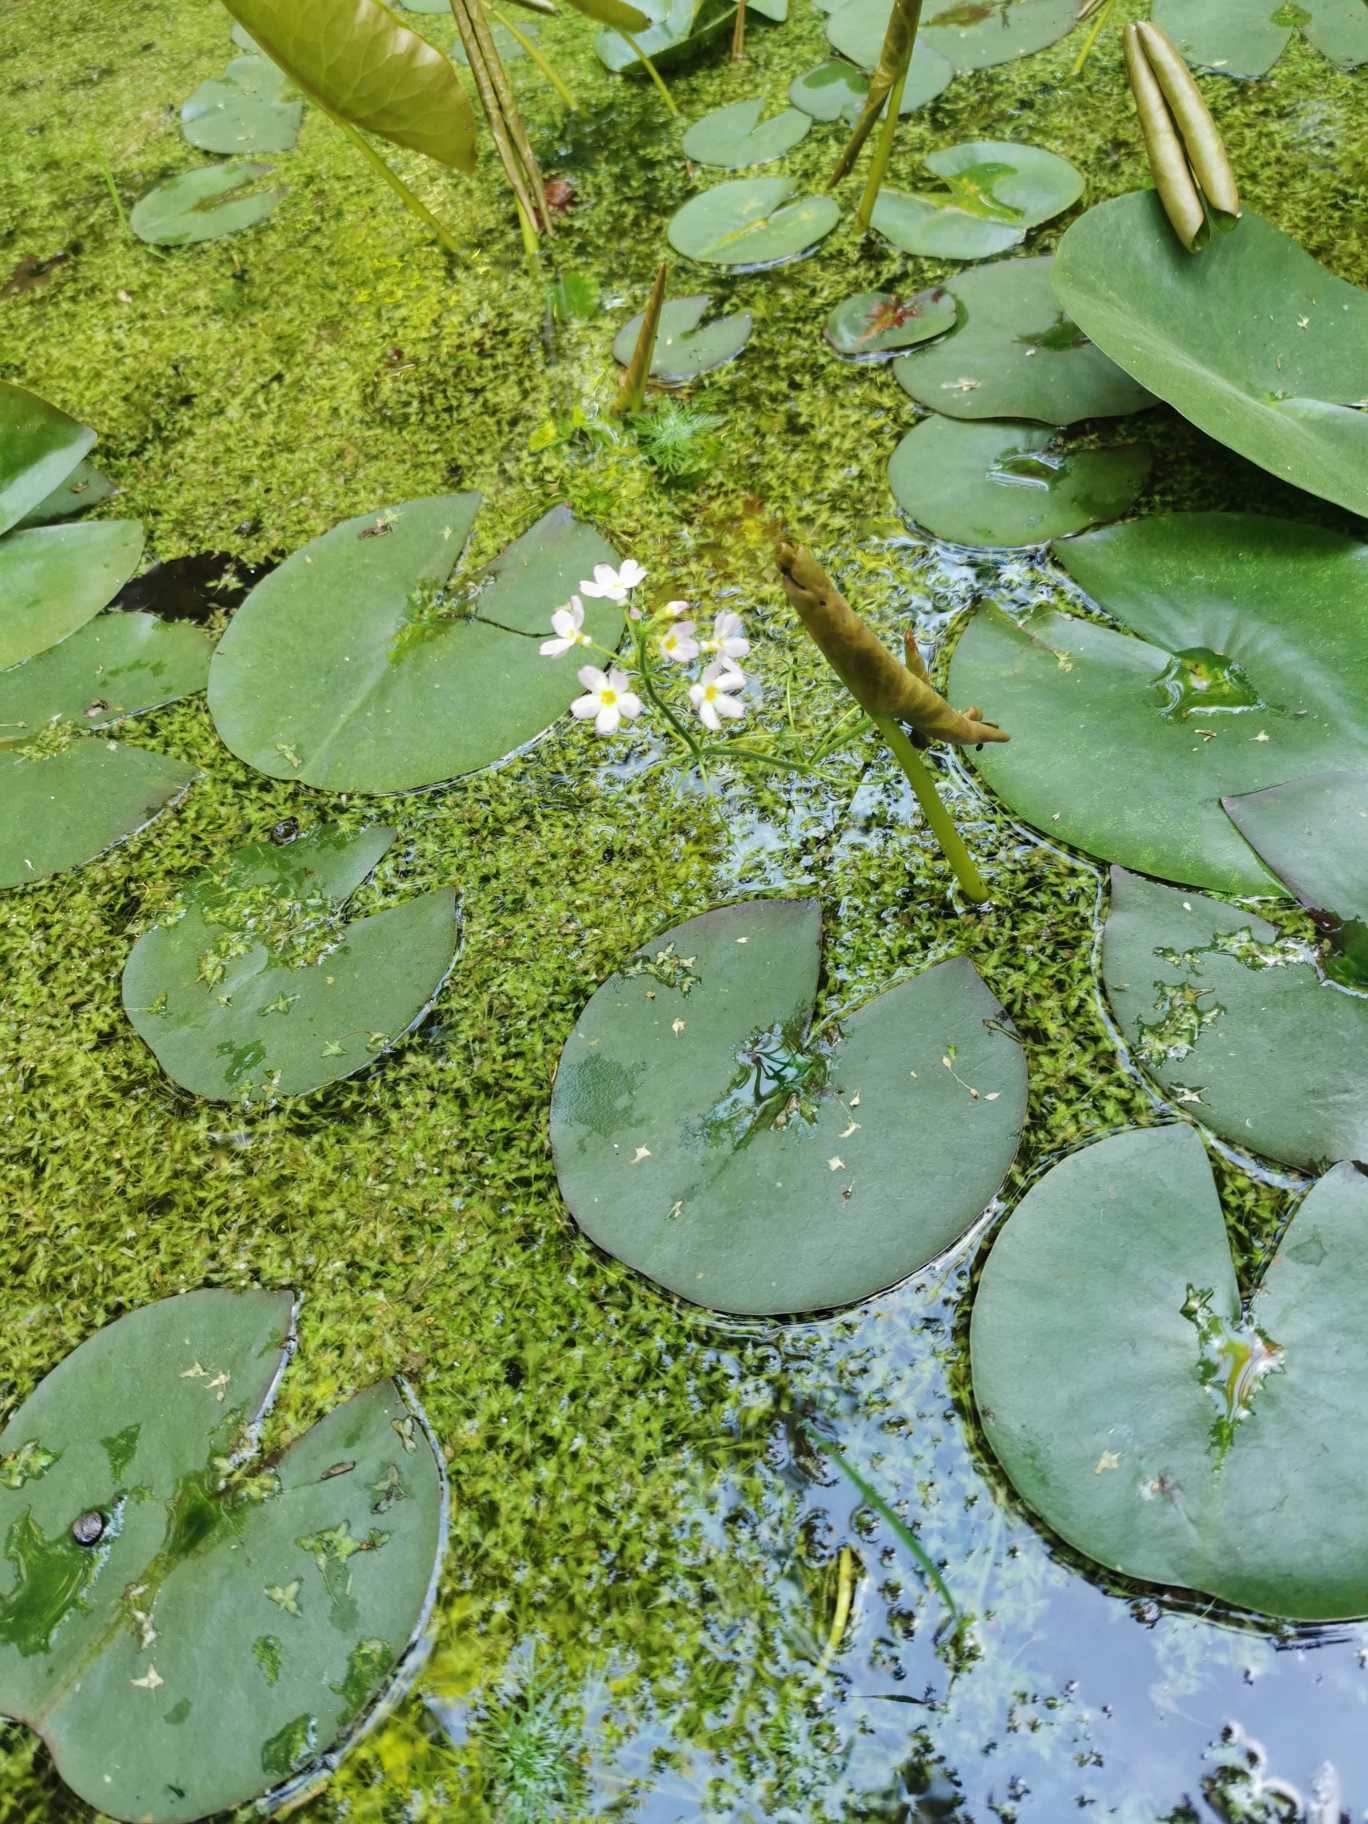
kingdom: Plantae
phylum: Tracheophyta
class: Magnoliopsida
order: Ericales
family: Primulaceae
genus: Hottonia
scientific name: Hottonia palustris
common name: Vandrøllike
